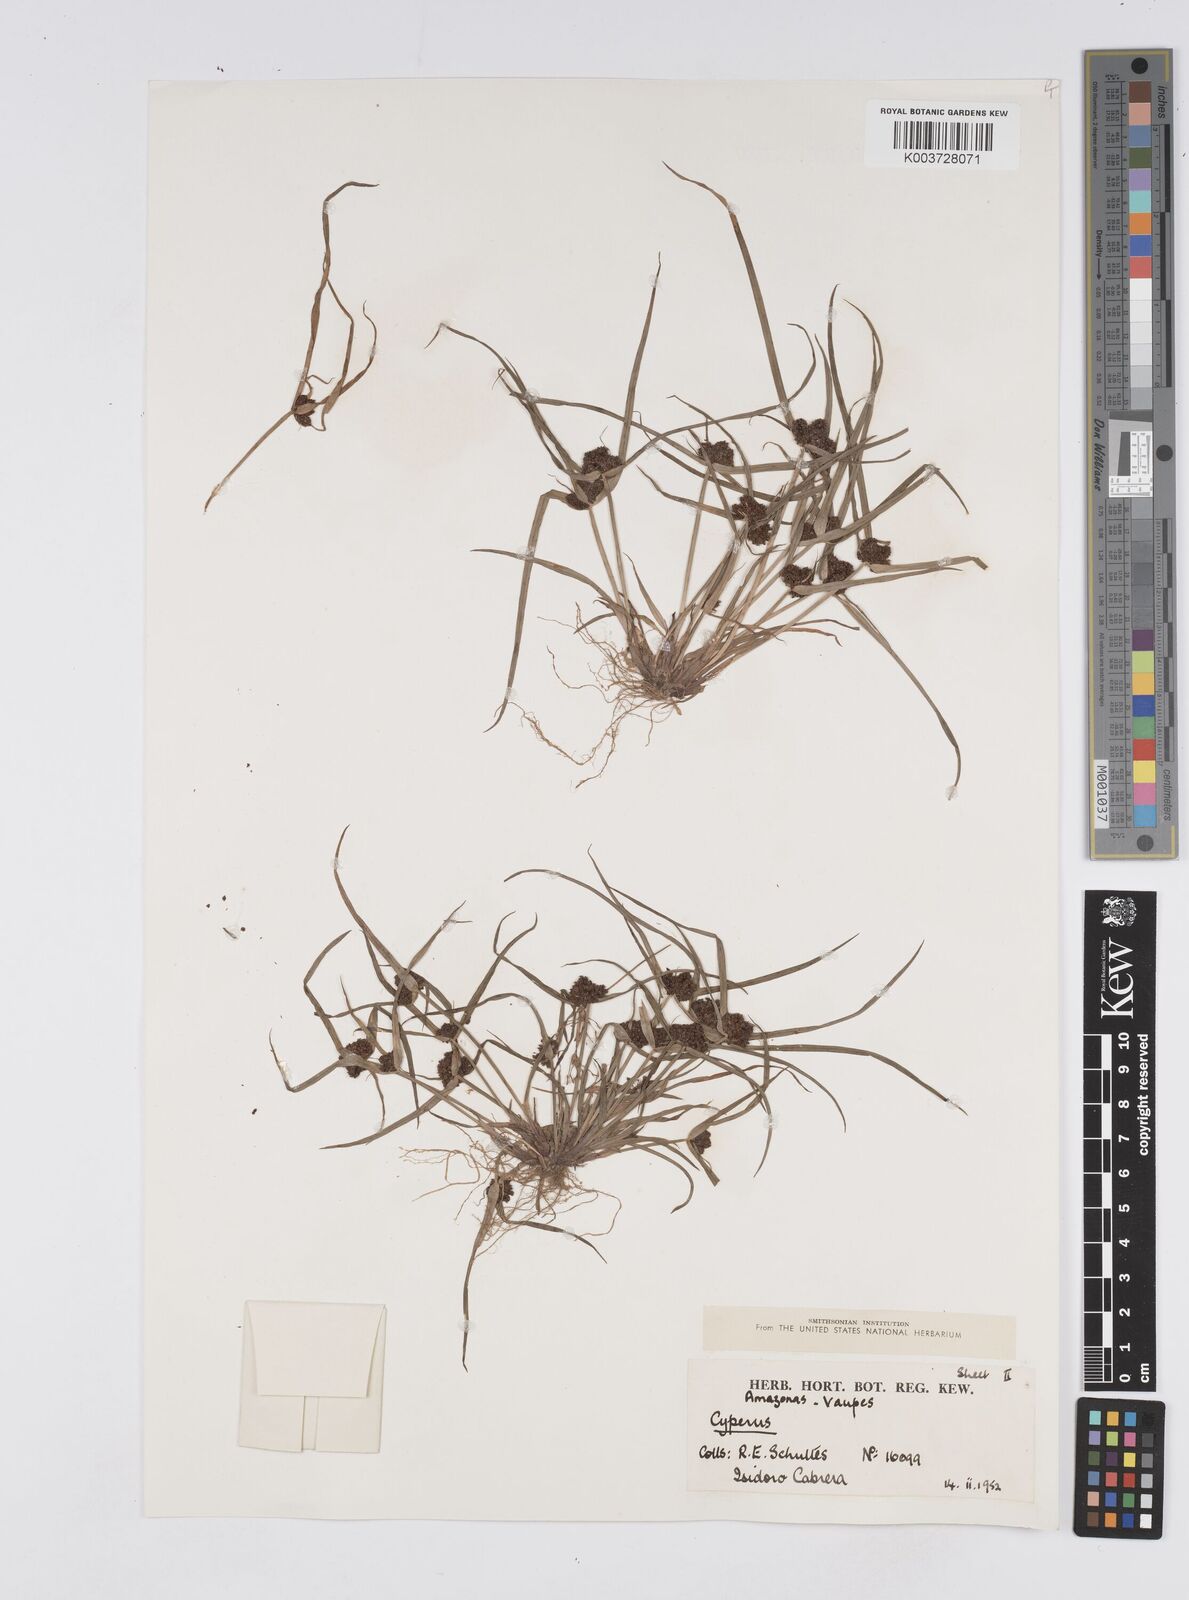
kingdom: Plantae
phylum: Tracheophyta
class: Liliopsida
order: Poales
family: Cyperaceae
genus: Cyperus
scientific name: Cyperus humilis
